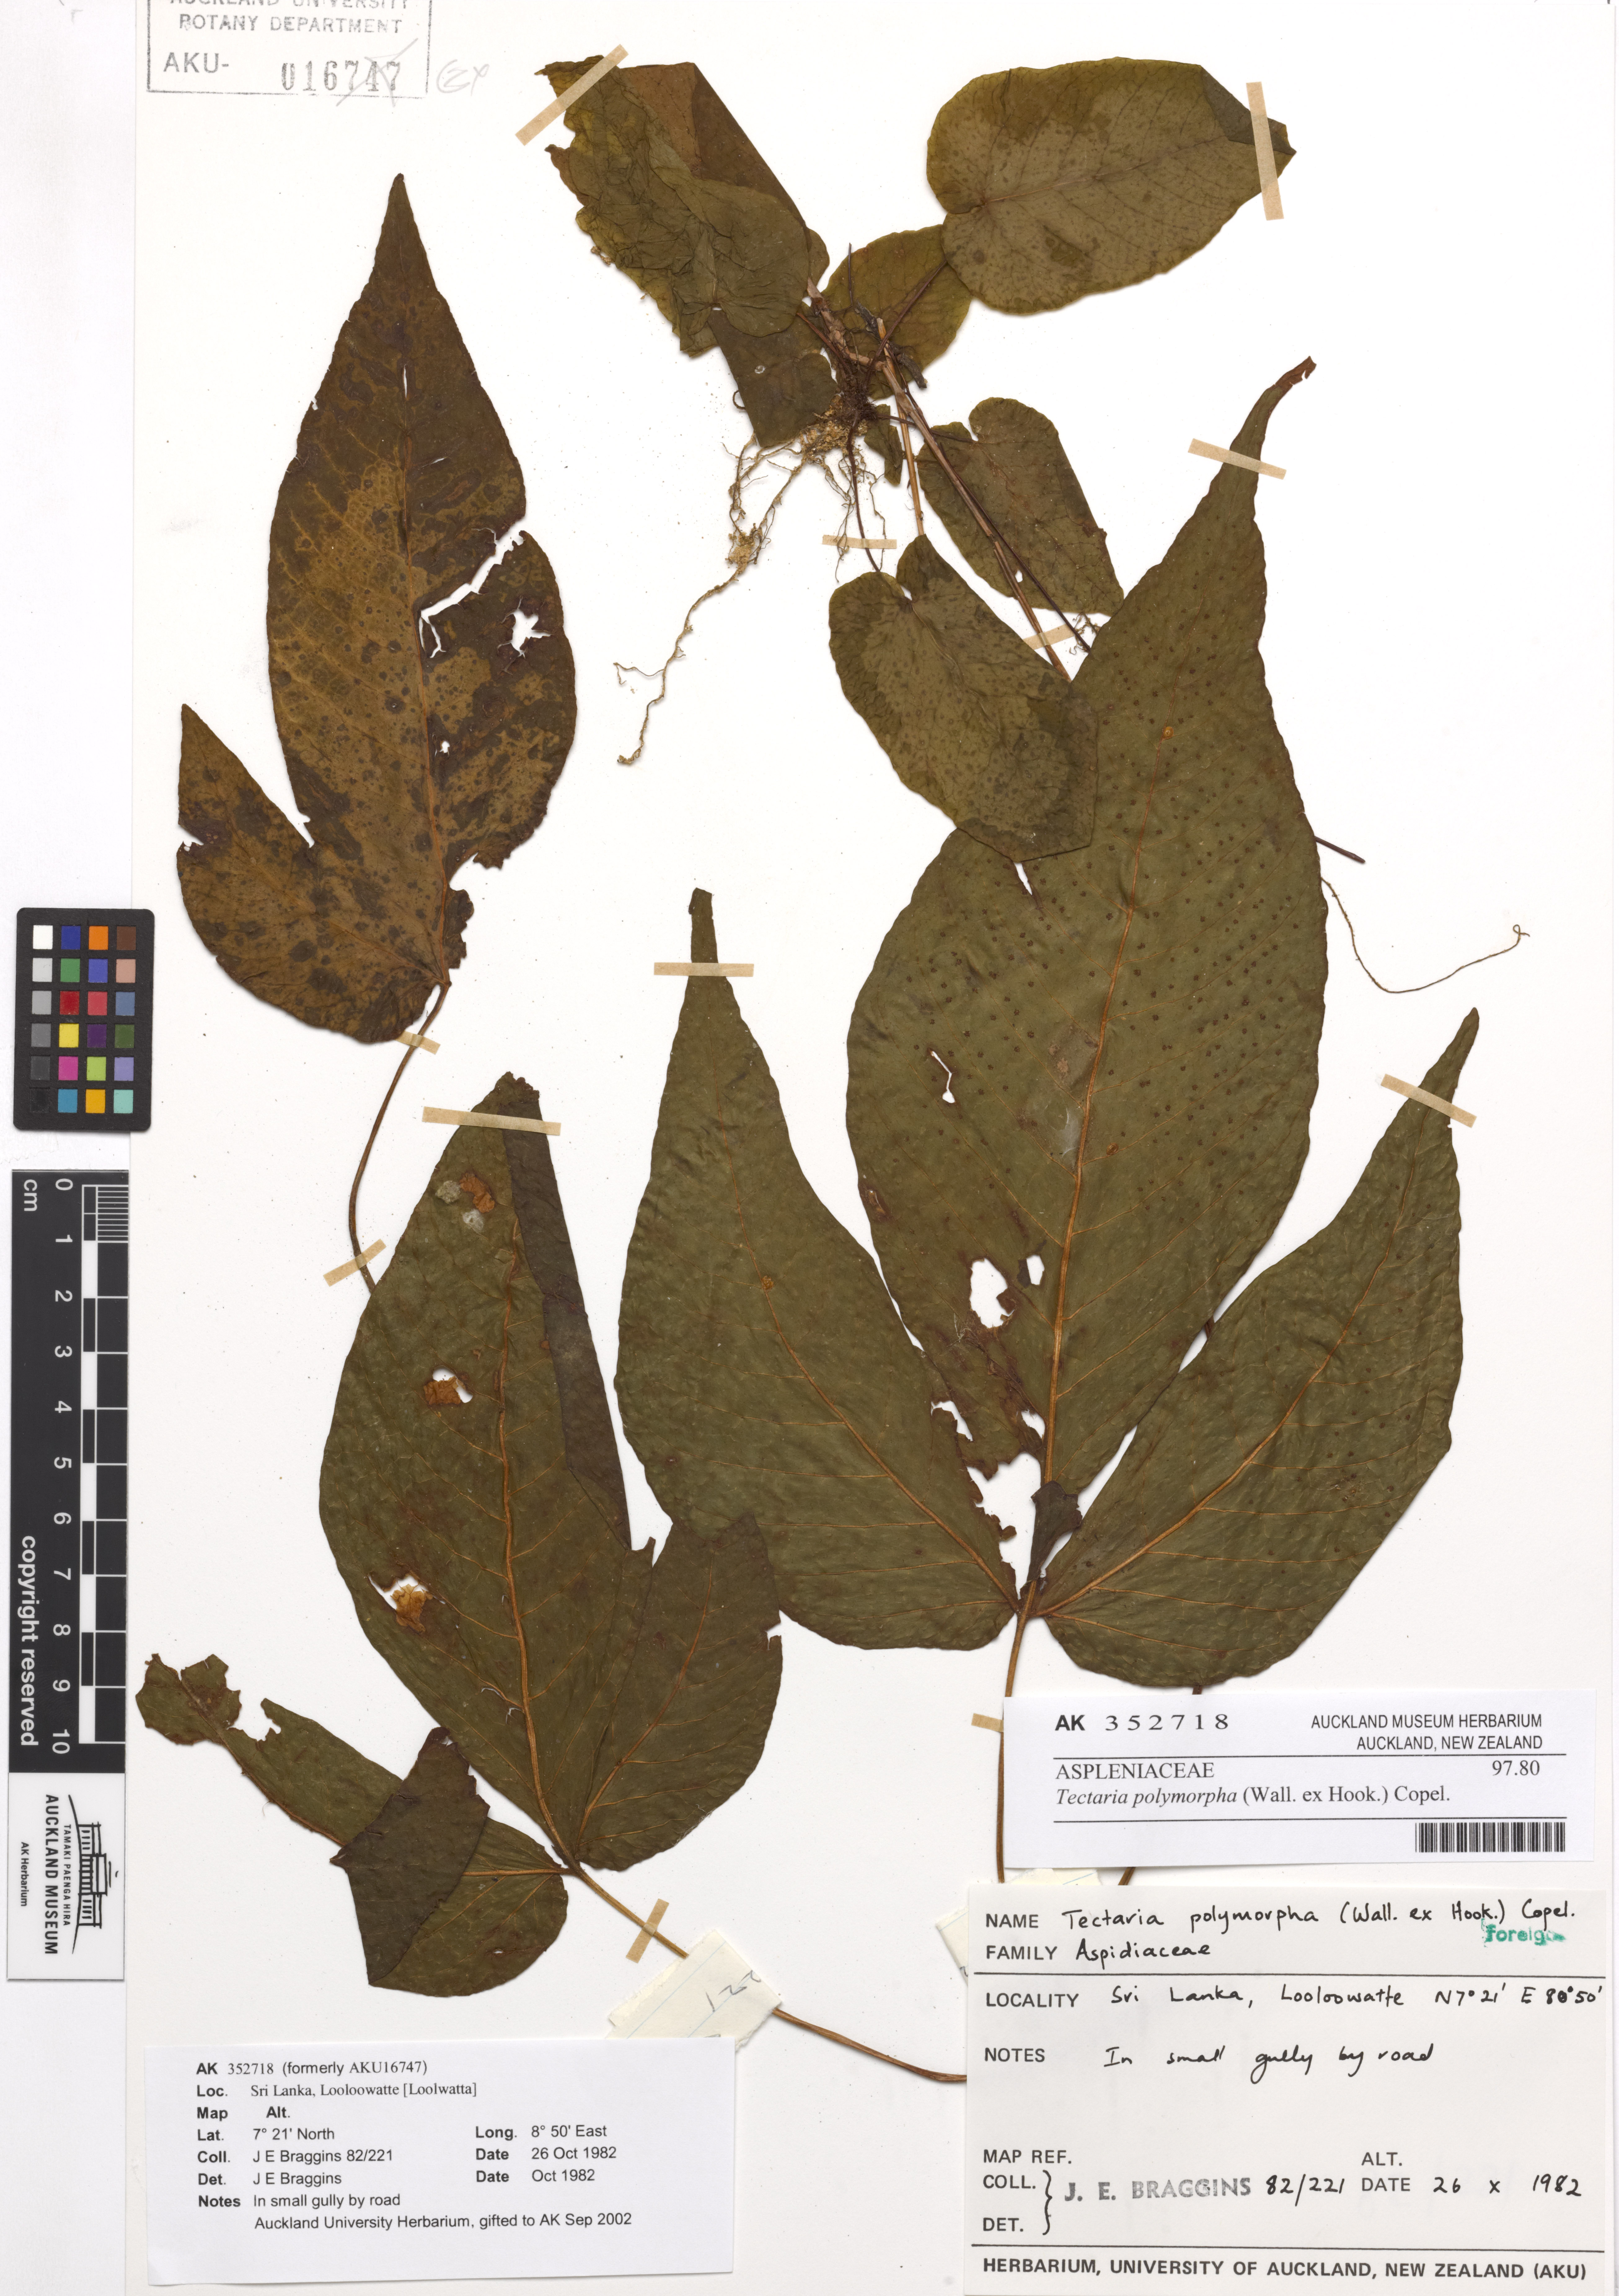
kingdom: Plantae
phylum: Tracheophyta
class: Polypodiopsida
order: Polypodiales
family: Tectariaceae
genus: Tectaria
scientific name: Tectaria polymorpha
